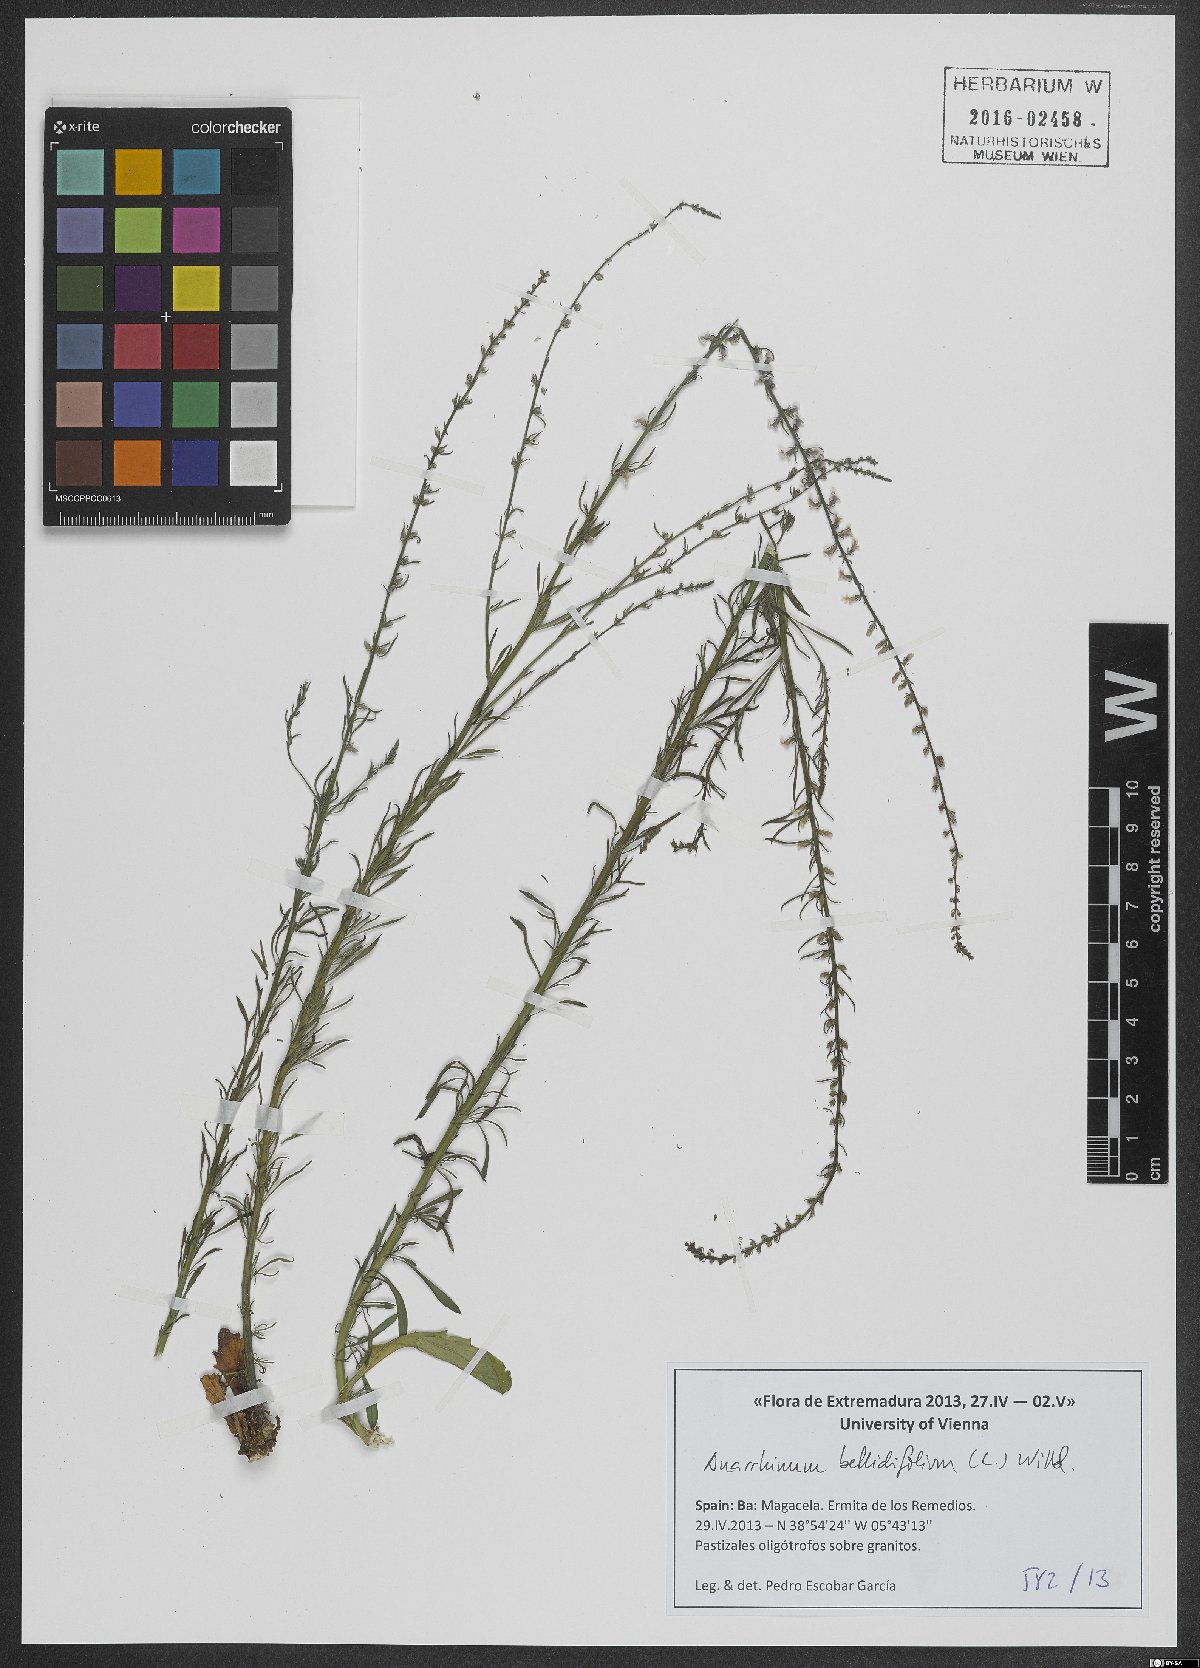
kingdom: Plantae
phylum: Tracheophyta
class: Magnoliopsida
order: Lamiales
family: Plantaginaceae
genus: Anarrhinum
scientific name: Anarrhinum bellidifolium
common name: Daisy-leaved toadflax
